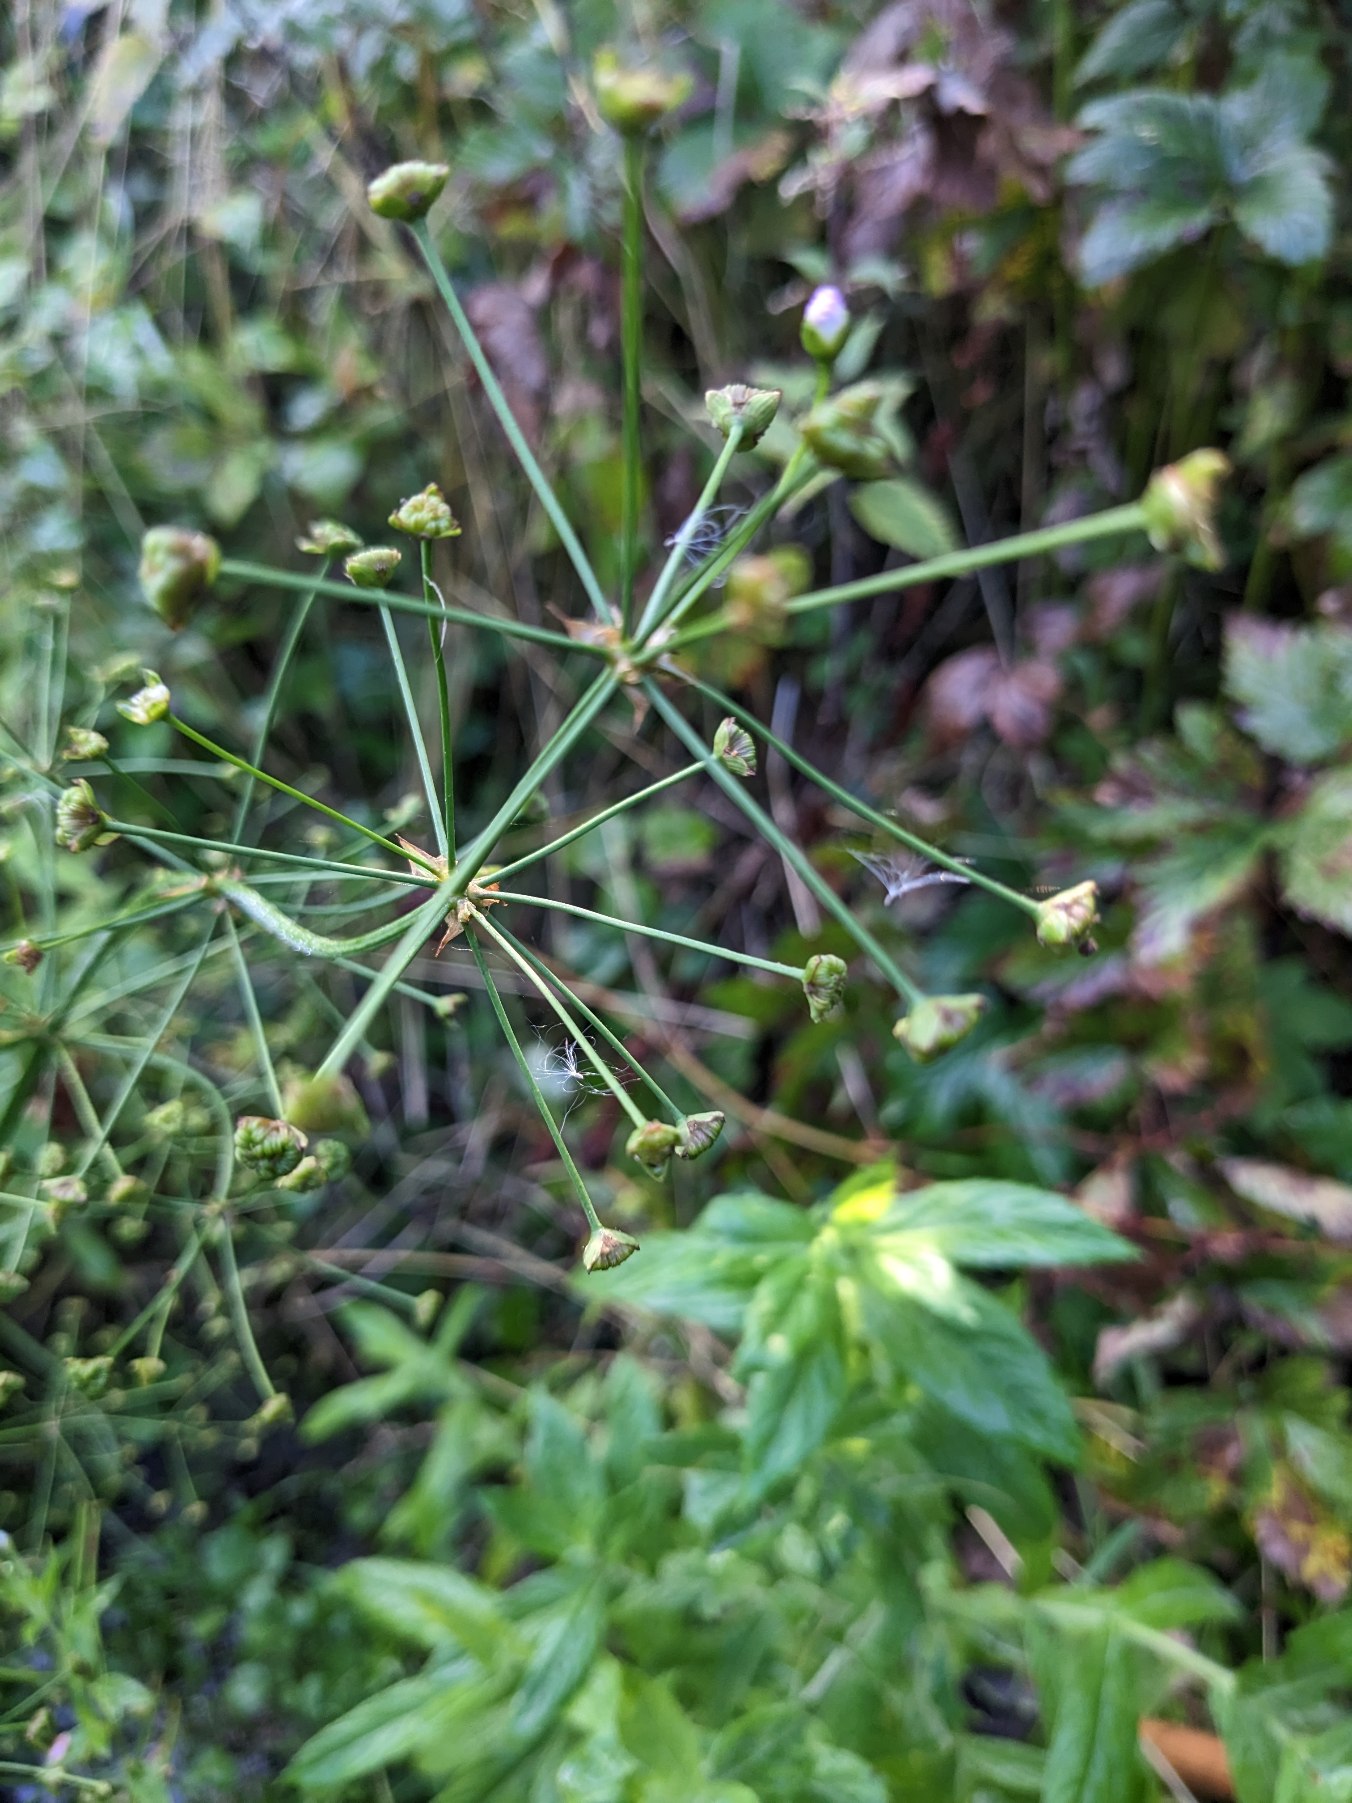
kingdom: Plantae
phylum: Tracheophyta
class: Liliopsida
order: Alismatales
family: Alismataceae
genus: Alisma
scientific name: Alisma plantago-aquatica
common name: Vejbred-skeblad
